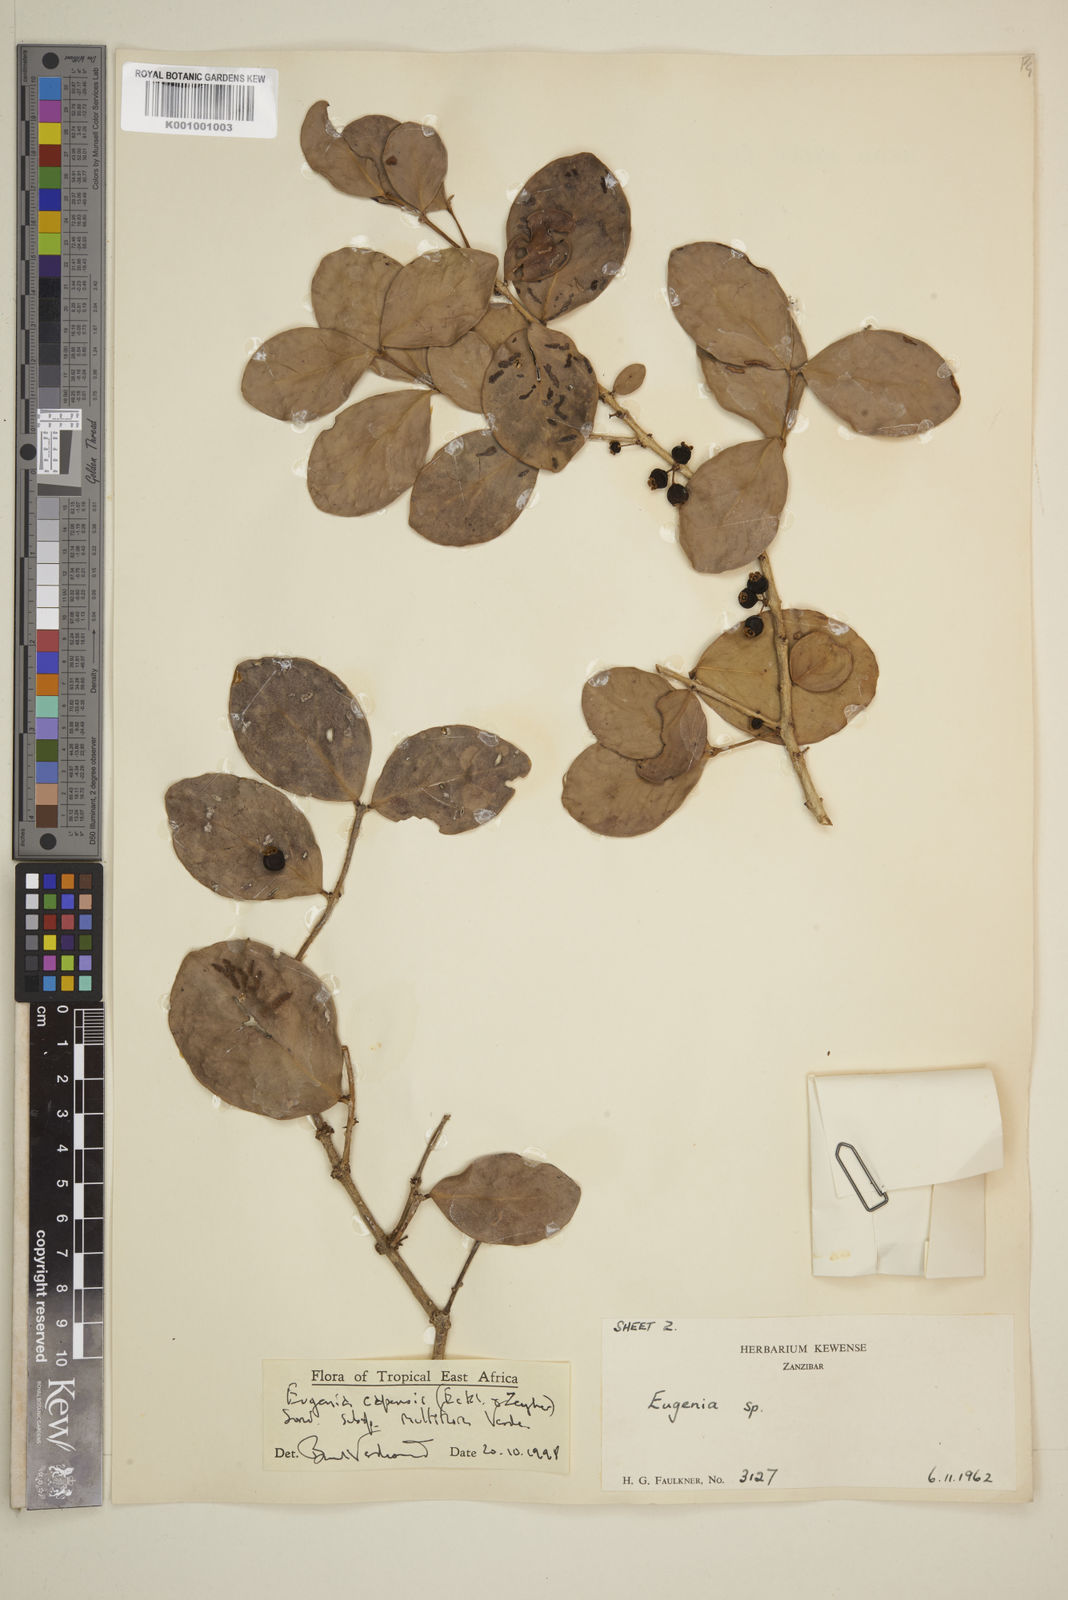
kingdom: Plantae
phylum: Tracheophyta
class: Magnoliopsida
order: Myrtales
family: Myrtaceae
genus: Eugenia
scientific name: Eugenia capensis
